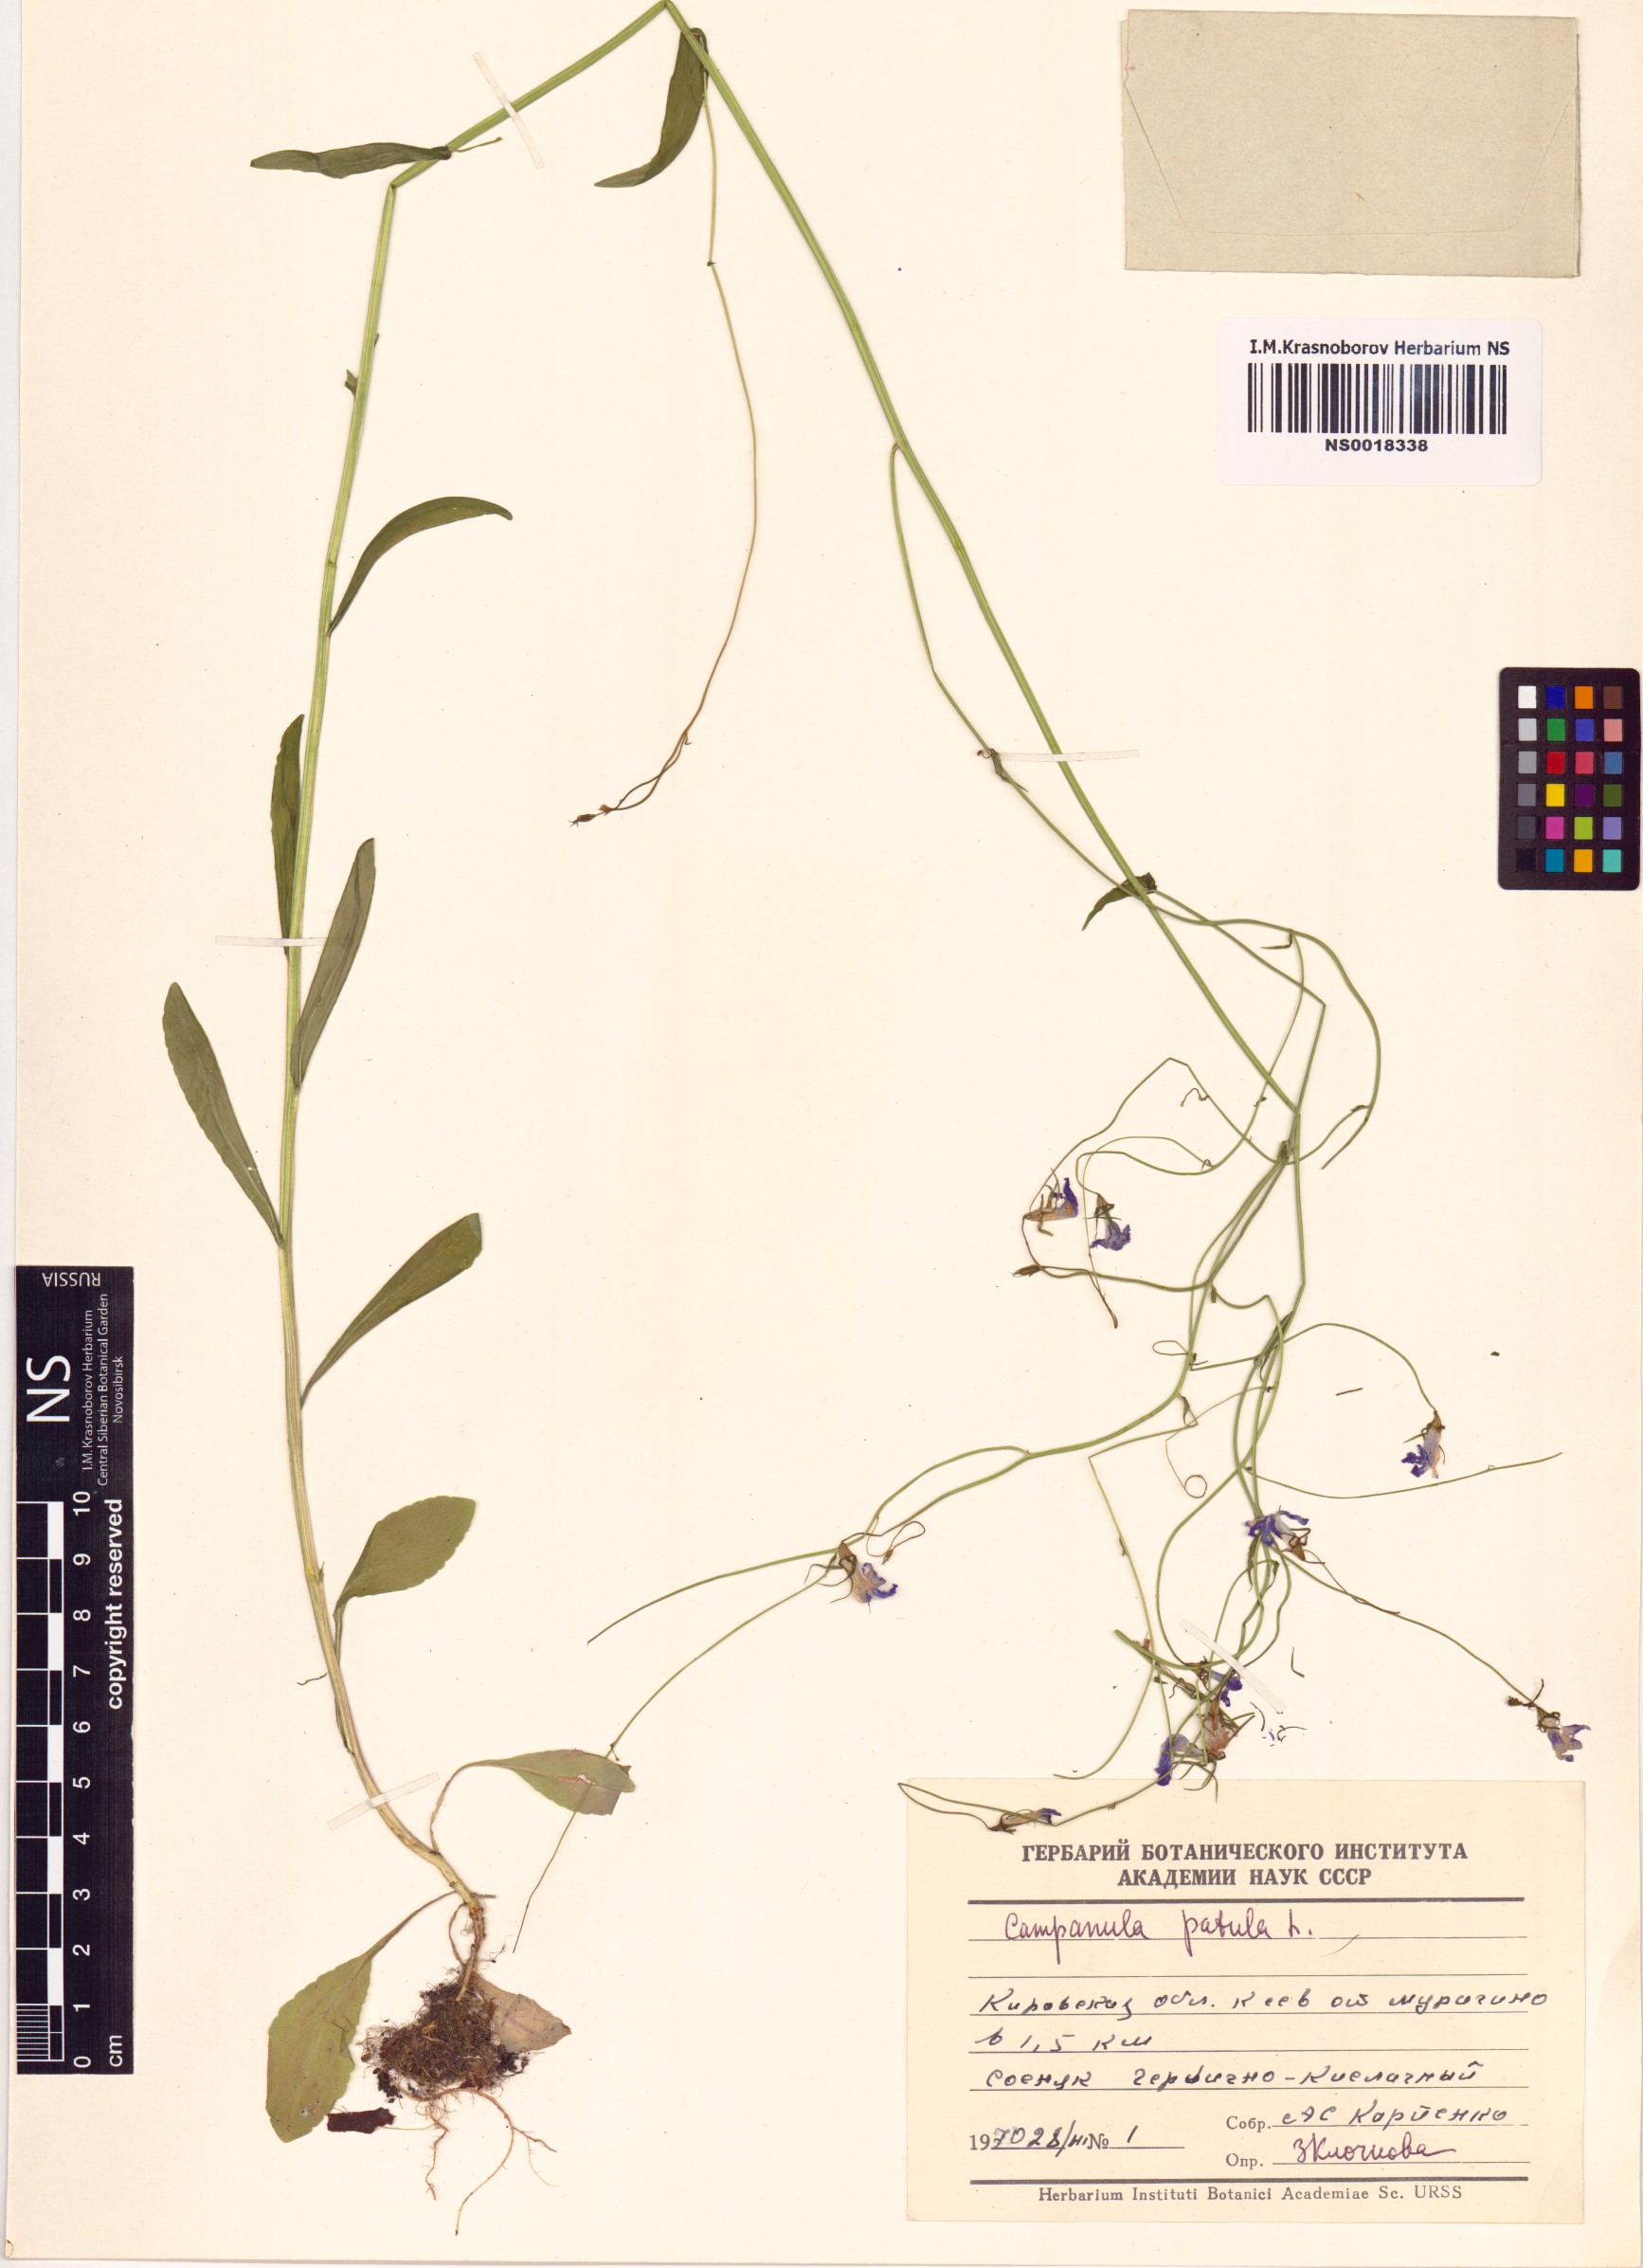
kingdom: Plantae
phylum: Tracheophyta
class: Magnoliopsida
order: Asterales
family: Campanulaceae
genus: Campanula
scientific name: Campanula patula
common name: Spreading bellflower
